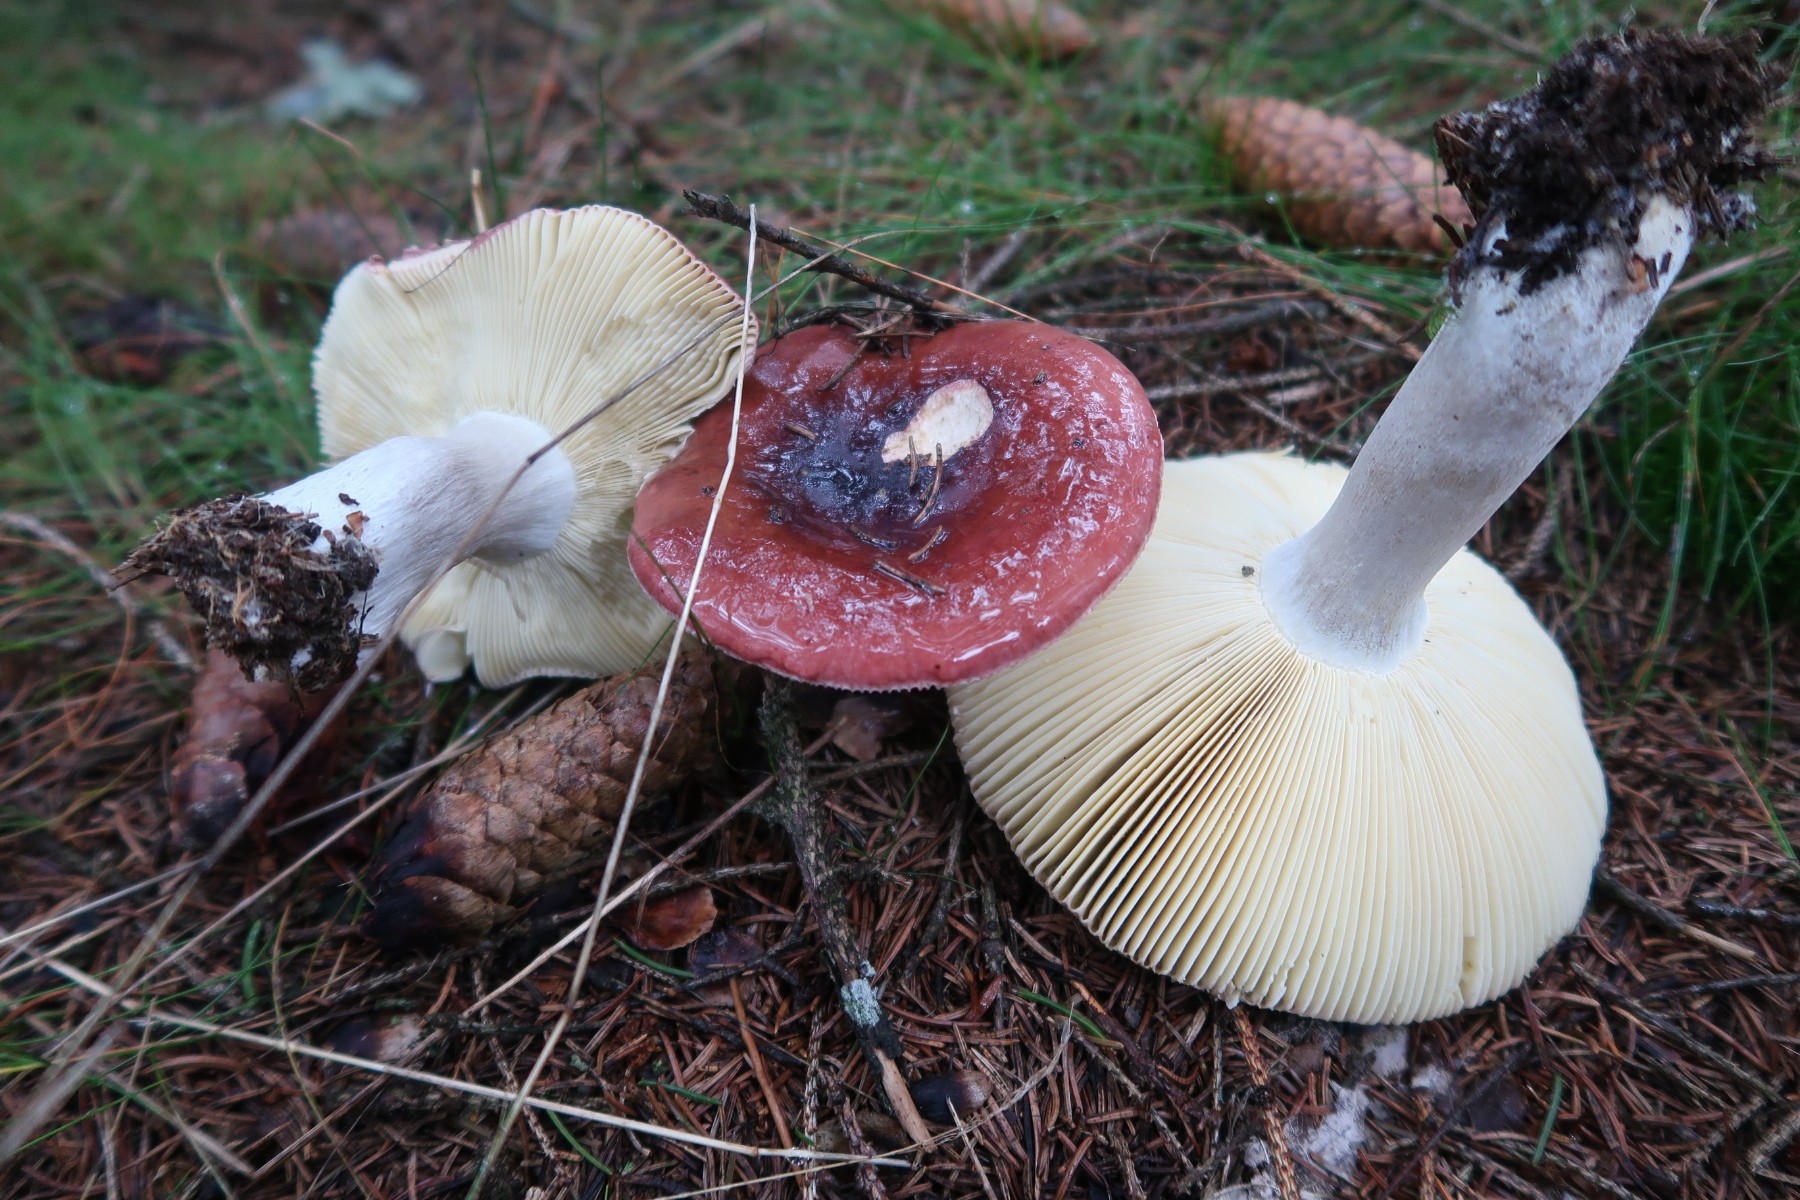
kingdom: Fungi
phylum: Basidiomycota
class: Agaricomycetes
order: Russulales
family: Russulaceae
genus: Russula
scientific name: Russula vinosa
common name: vinrød skørhat
